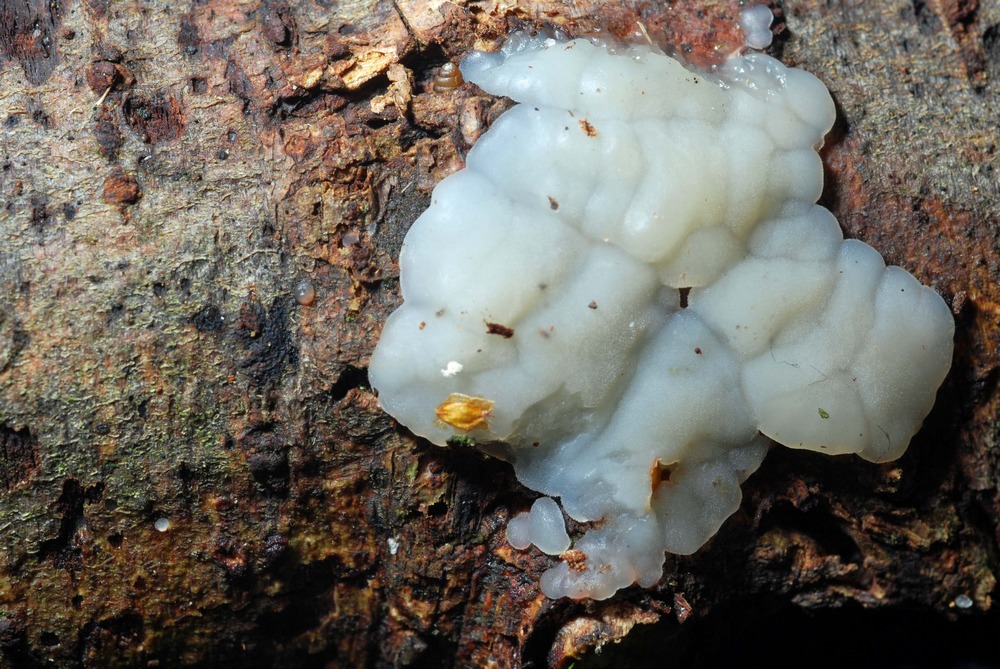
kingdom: Fungi
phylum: Basidiomycota
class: Agaricomycetes
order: Auriculariales
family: Auriculariaceae
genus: Exidia
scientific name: Exidia thuretiana
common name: hvidlig bævretop
